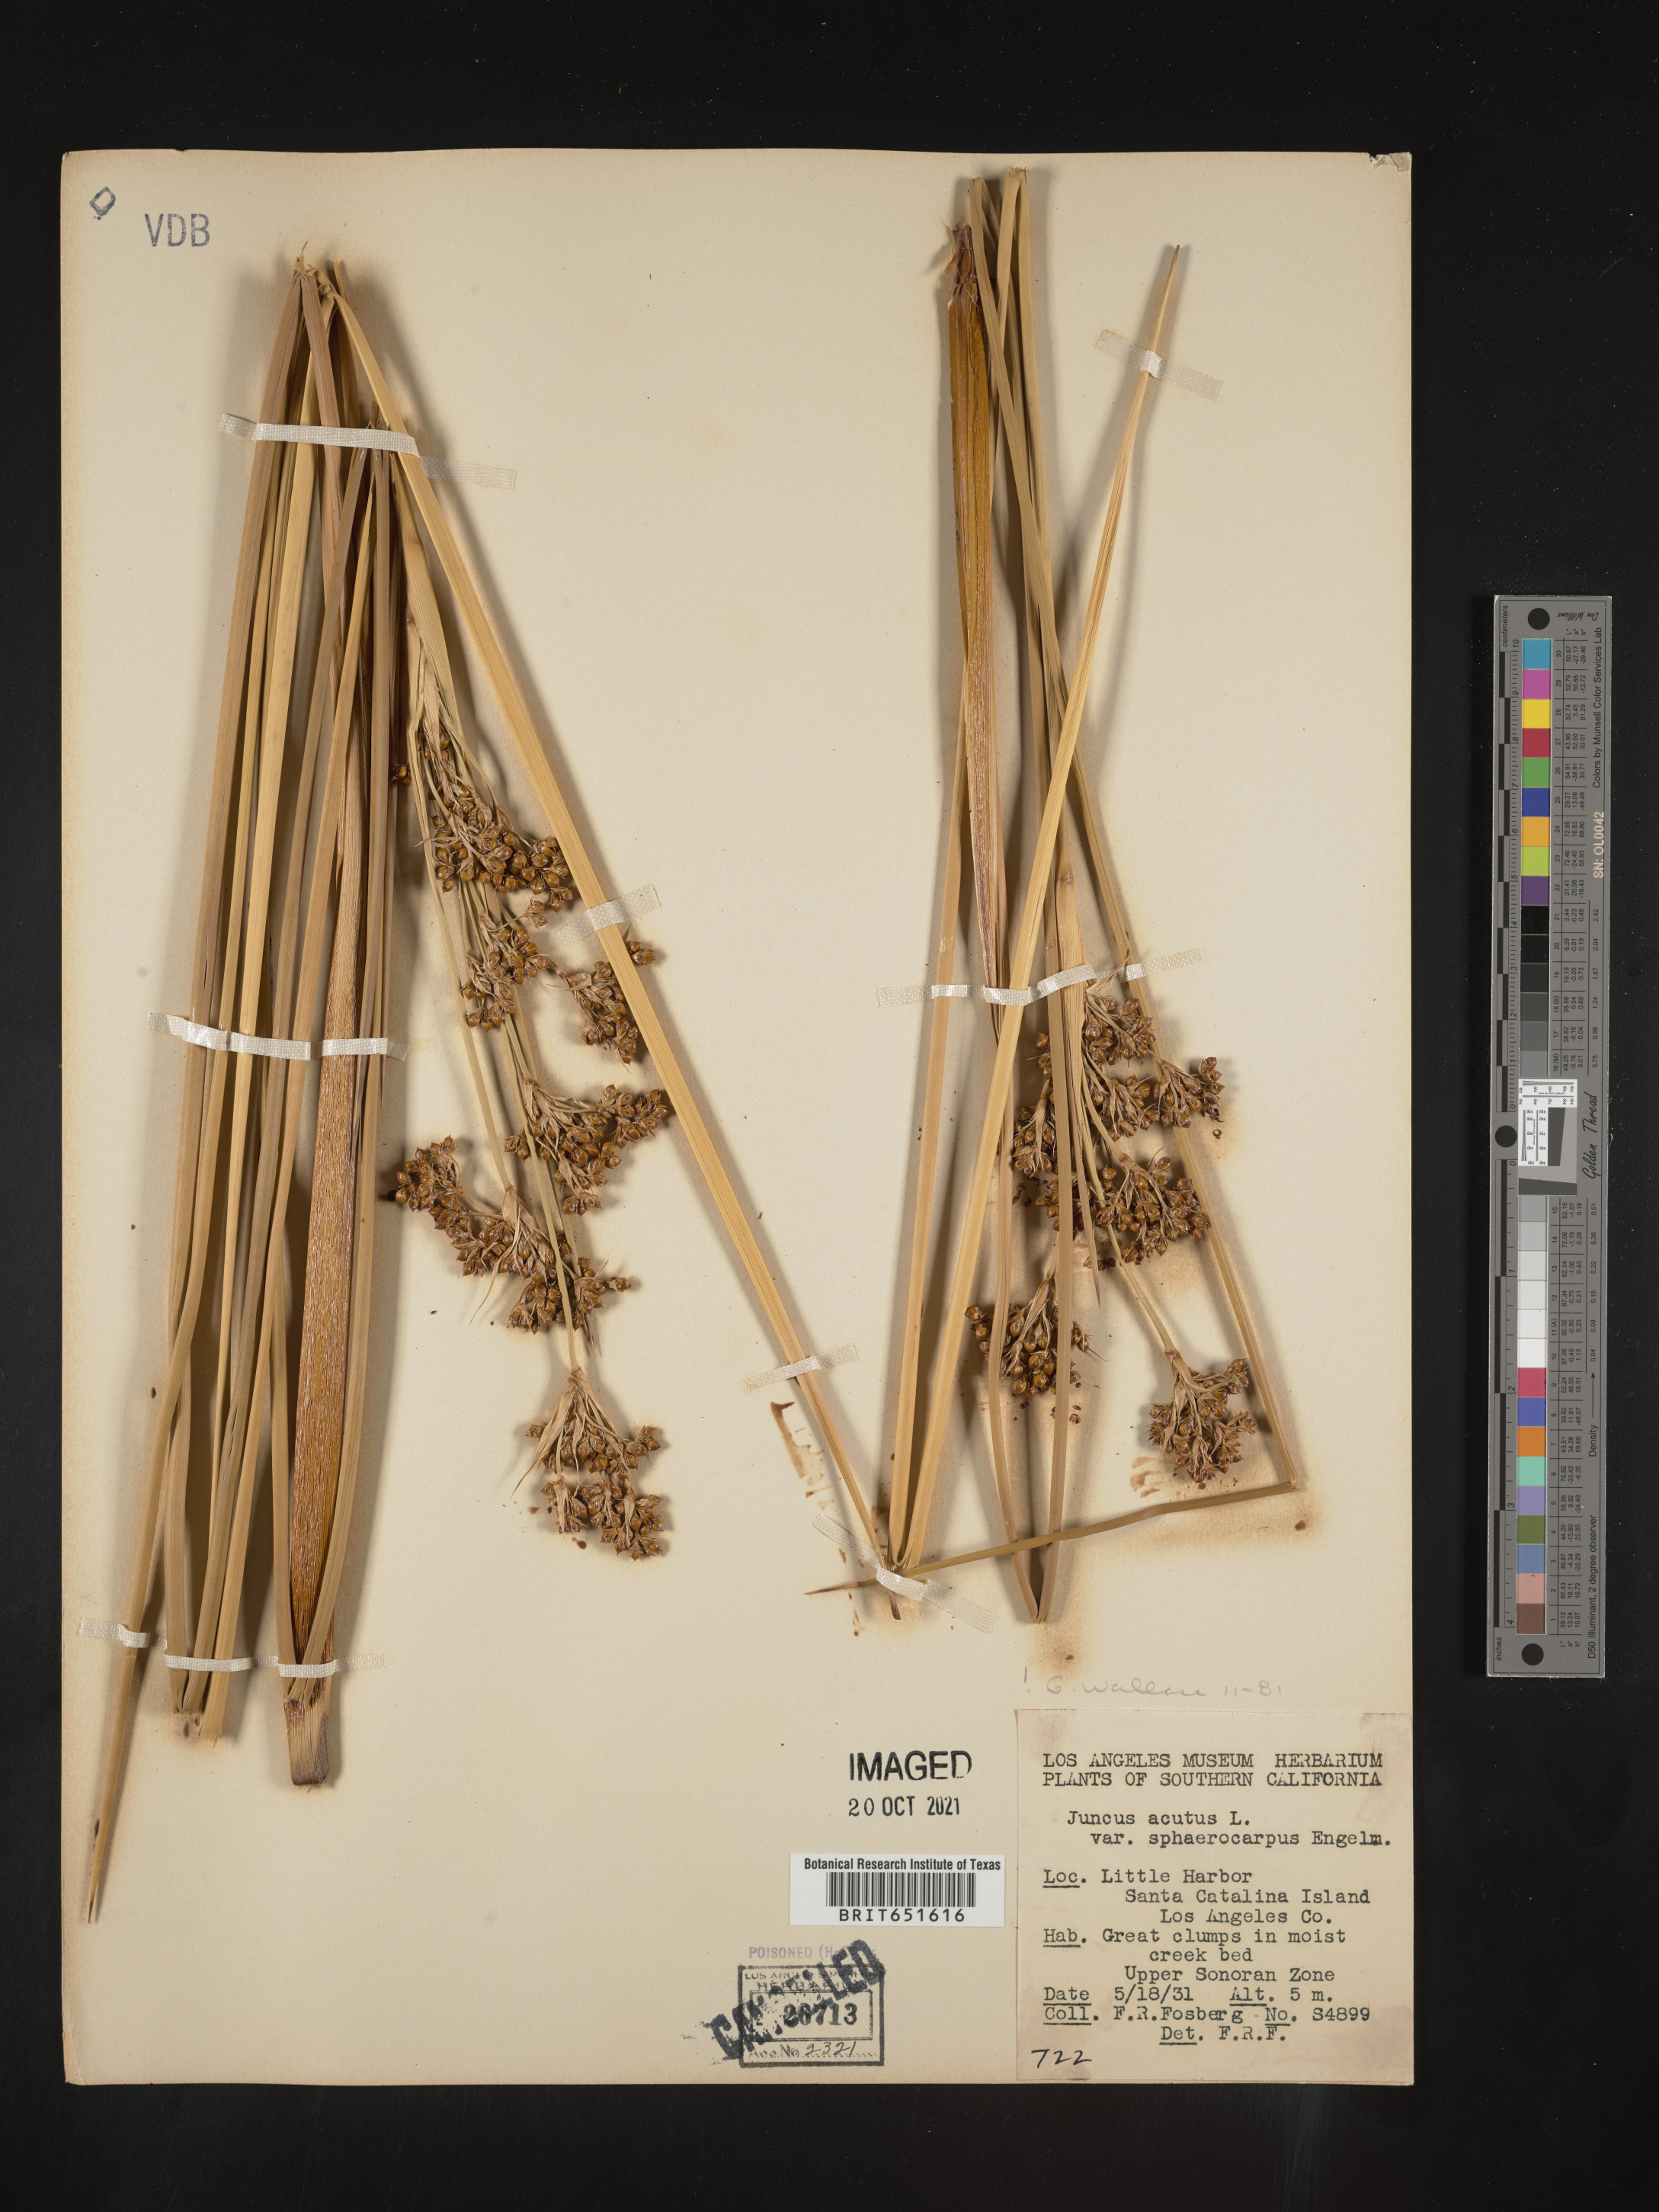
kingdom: Plantae
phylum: Tracheophyta
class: Liliopsida
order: Poales
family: Juncaceae
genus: Juncus
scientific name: Juncus acutus
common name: Sharp rush
